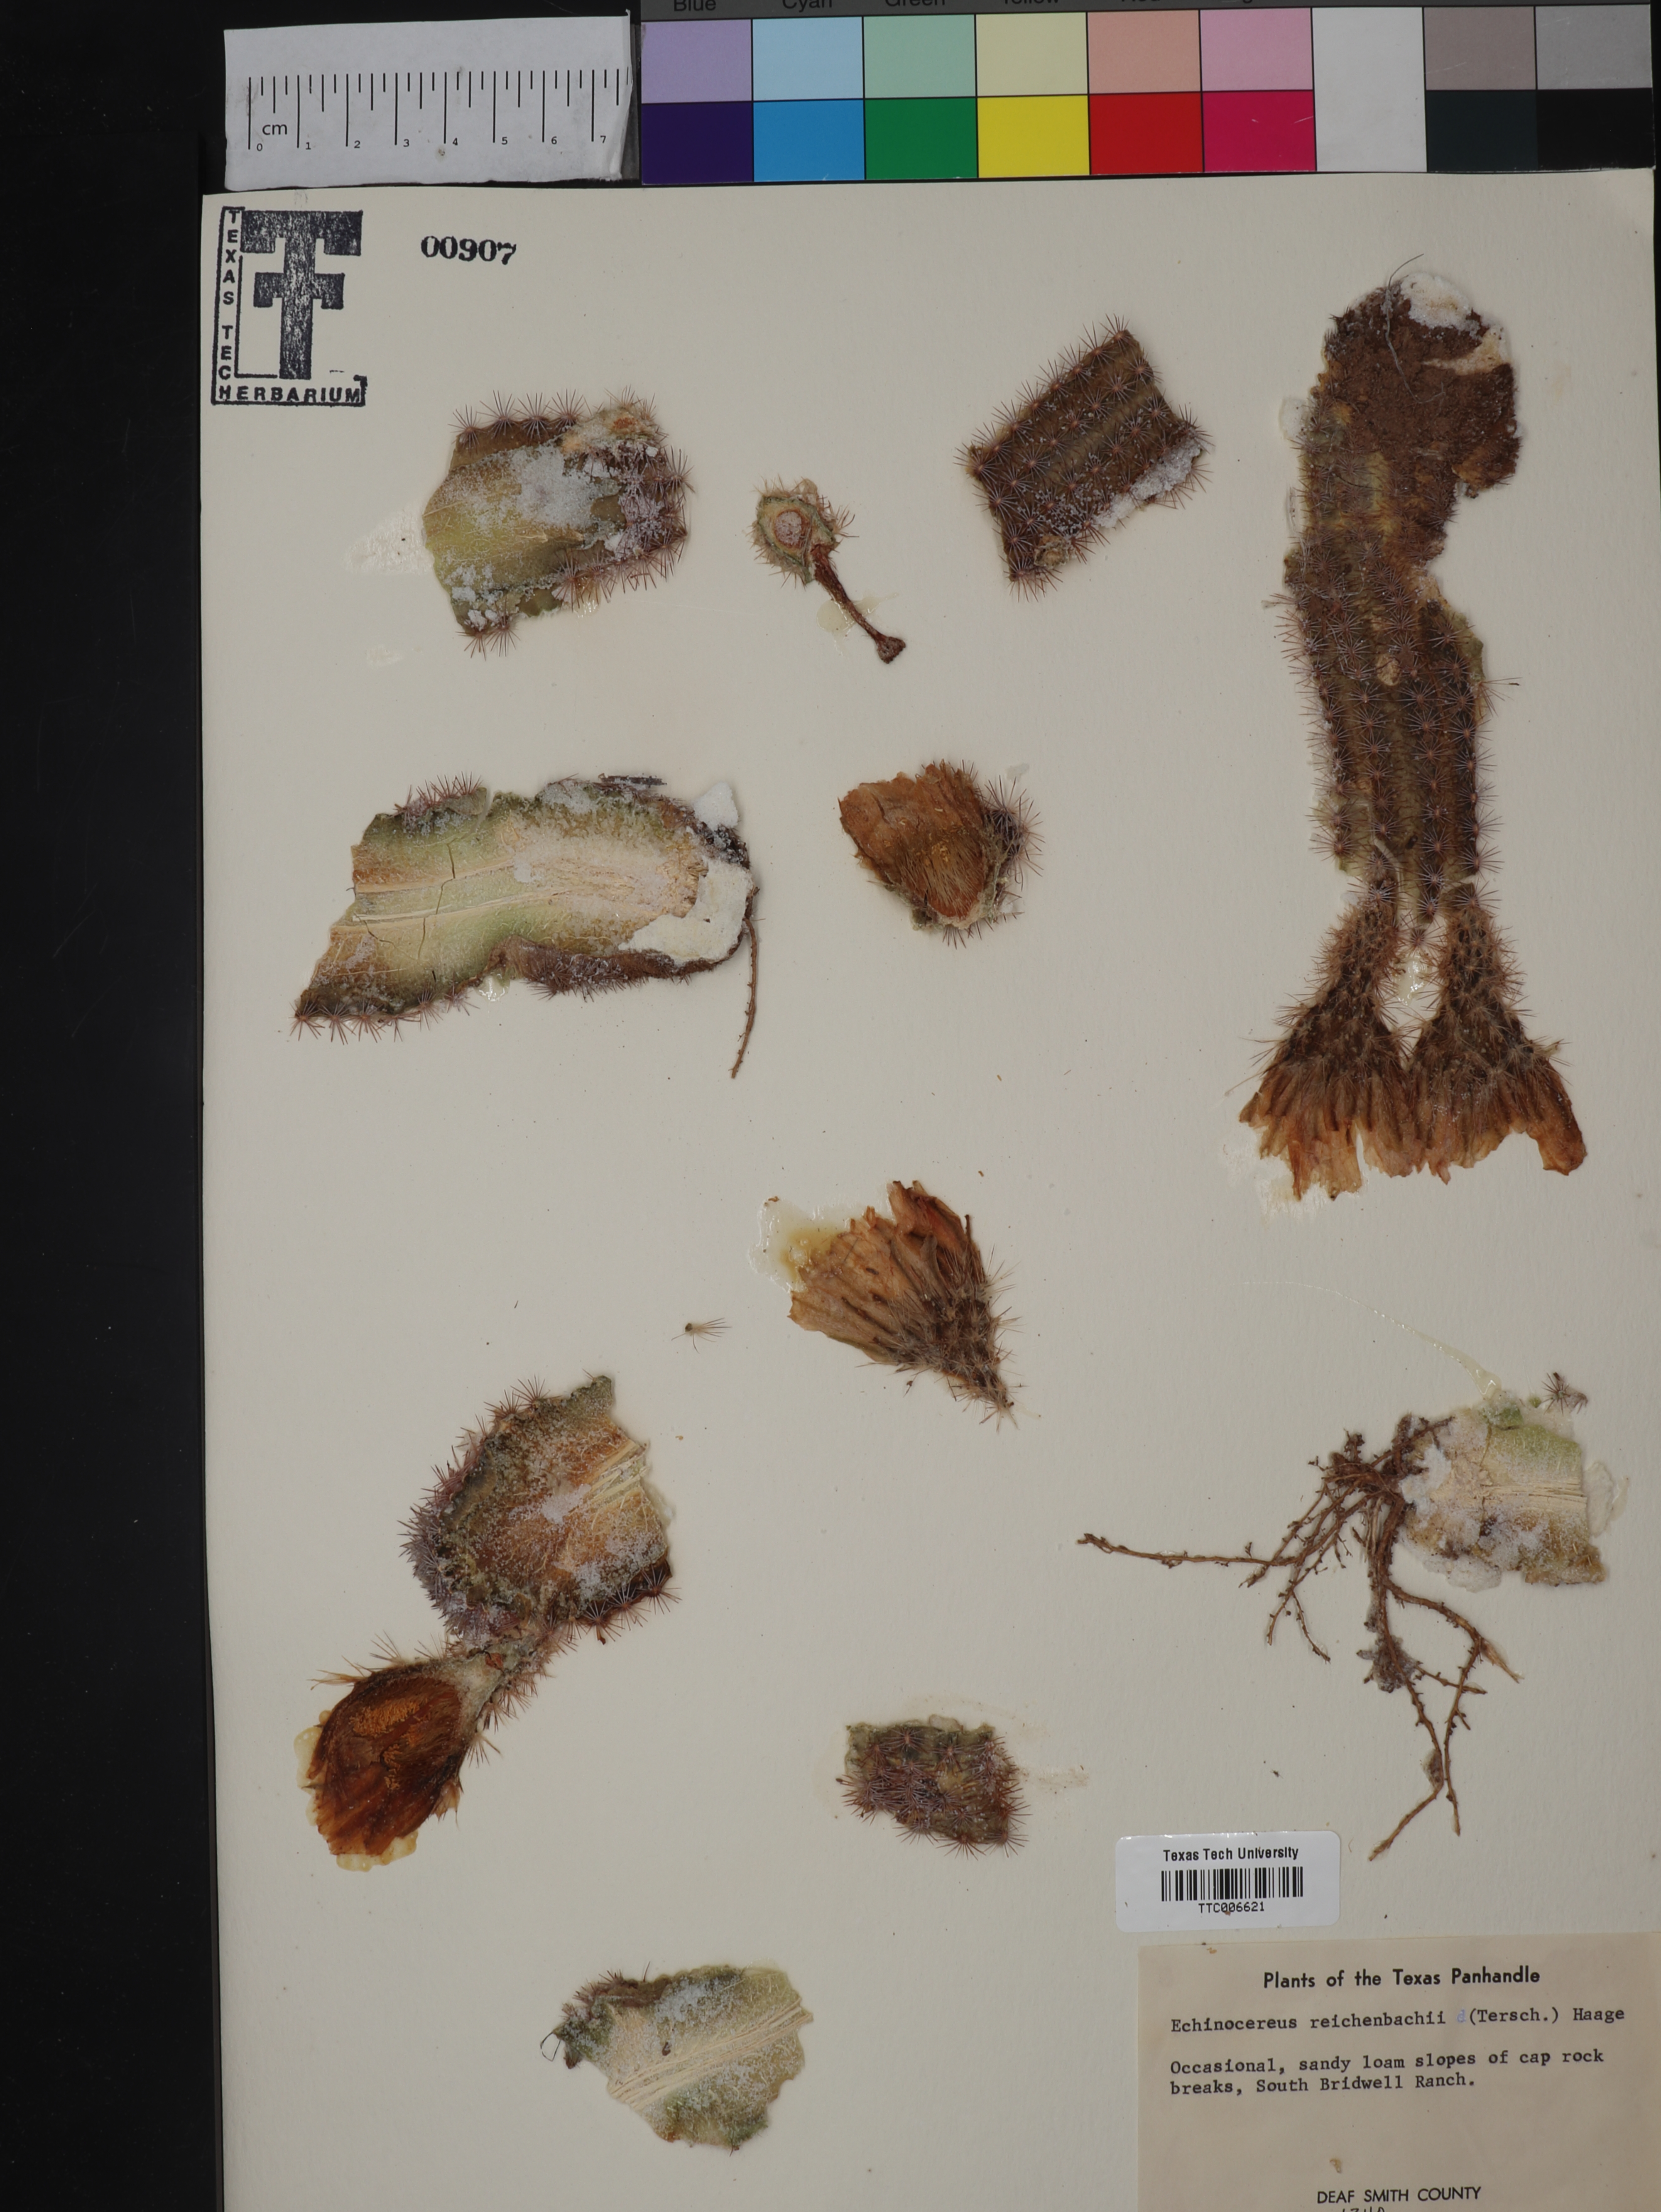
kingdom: Plantae
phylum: Tracheophyta
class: Magnoliopsida
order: Caryophyllales
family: Cactaceae
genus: Echinocereus
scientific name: Echinocereus reichenbachii
